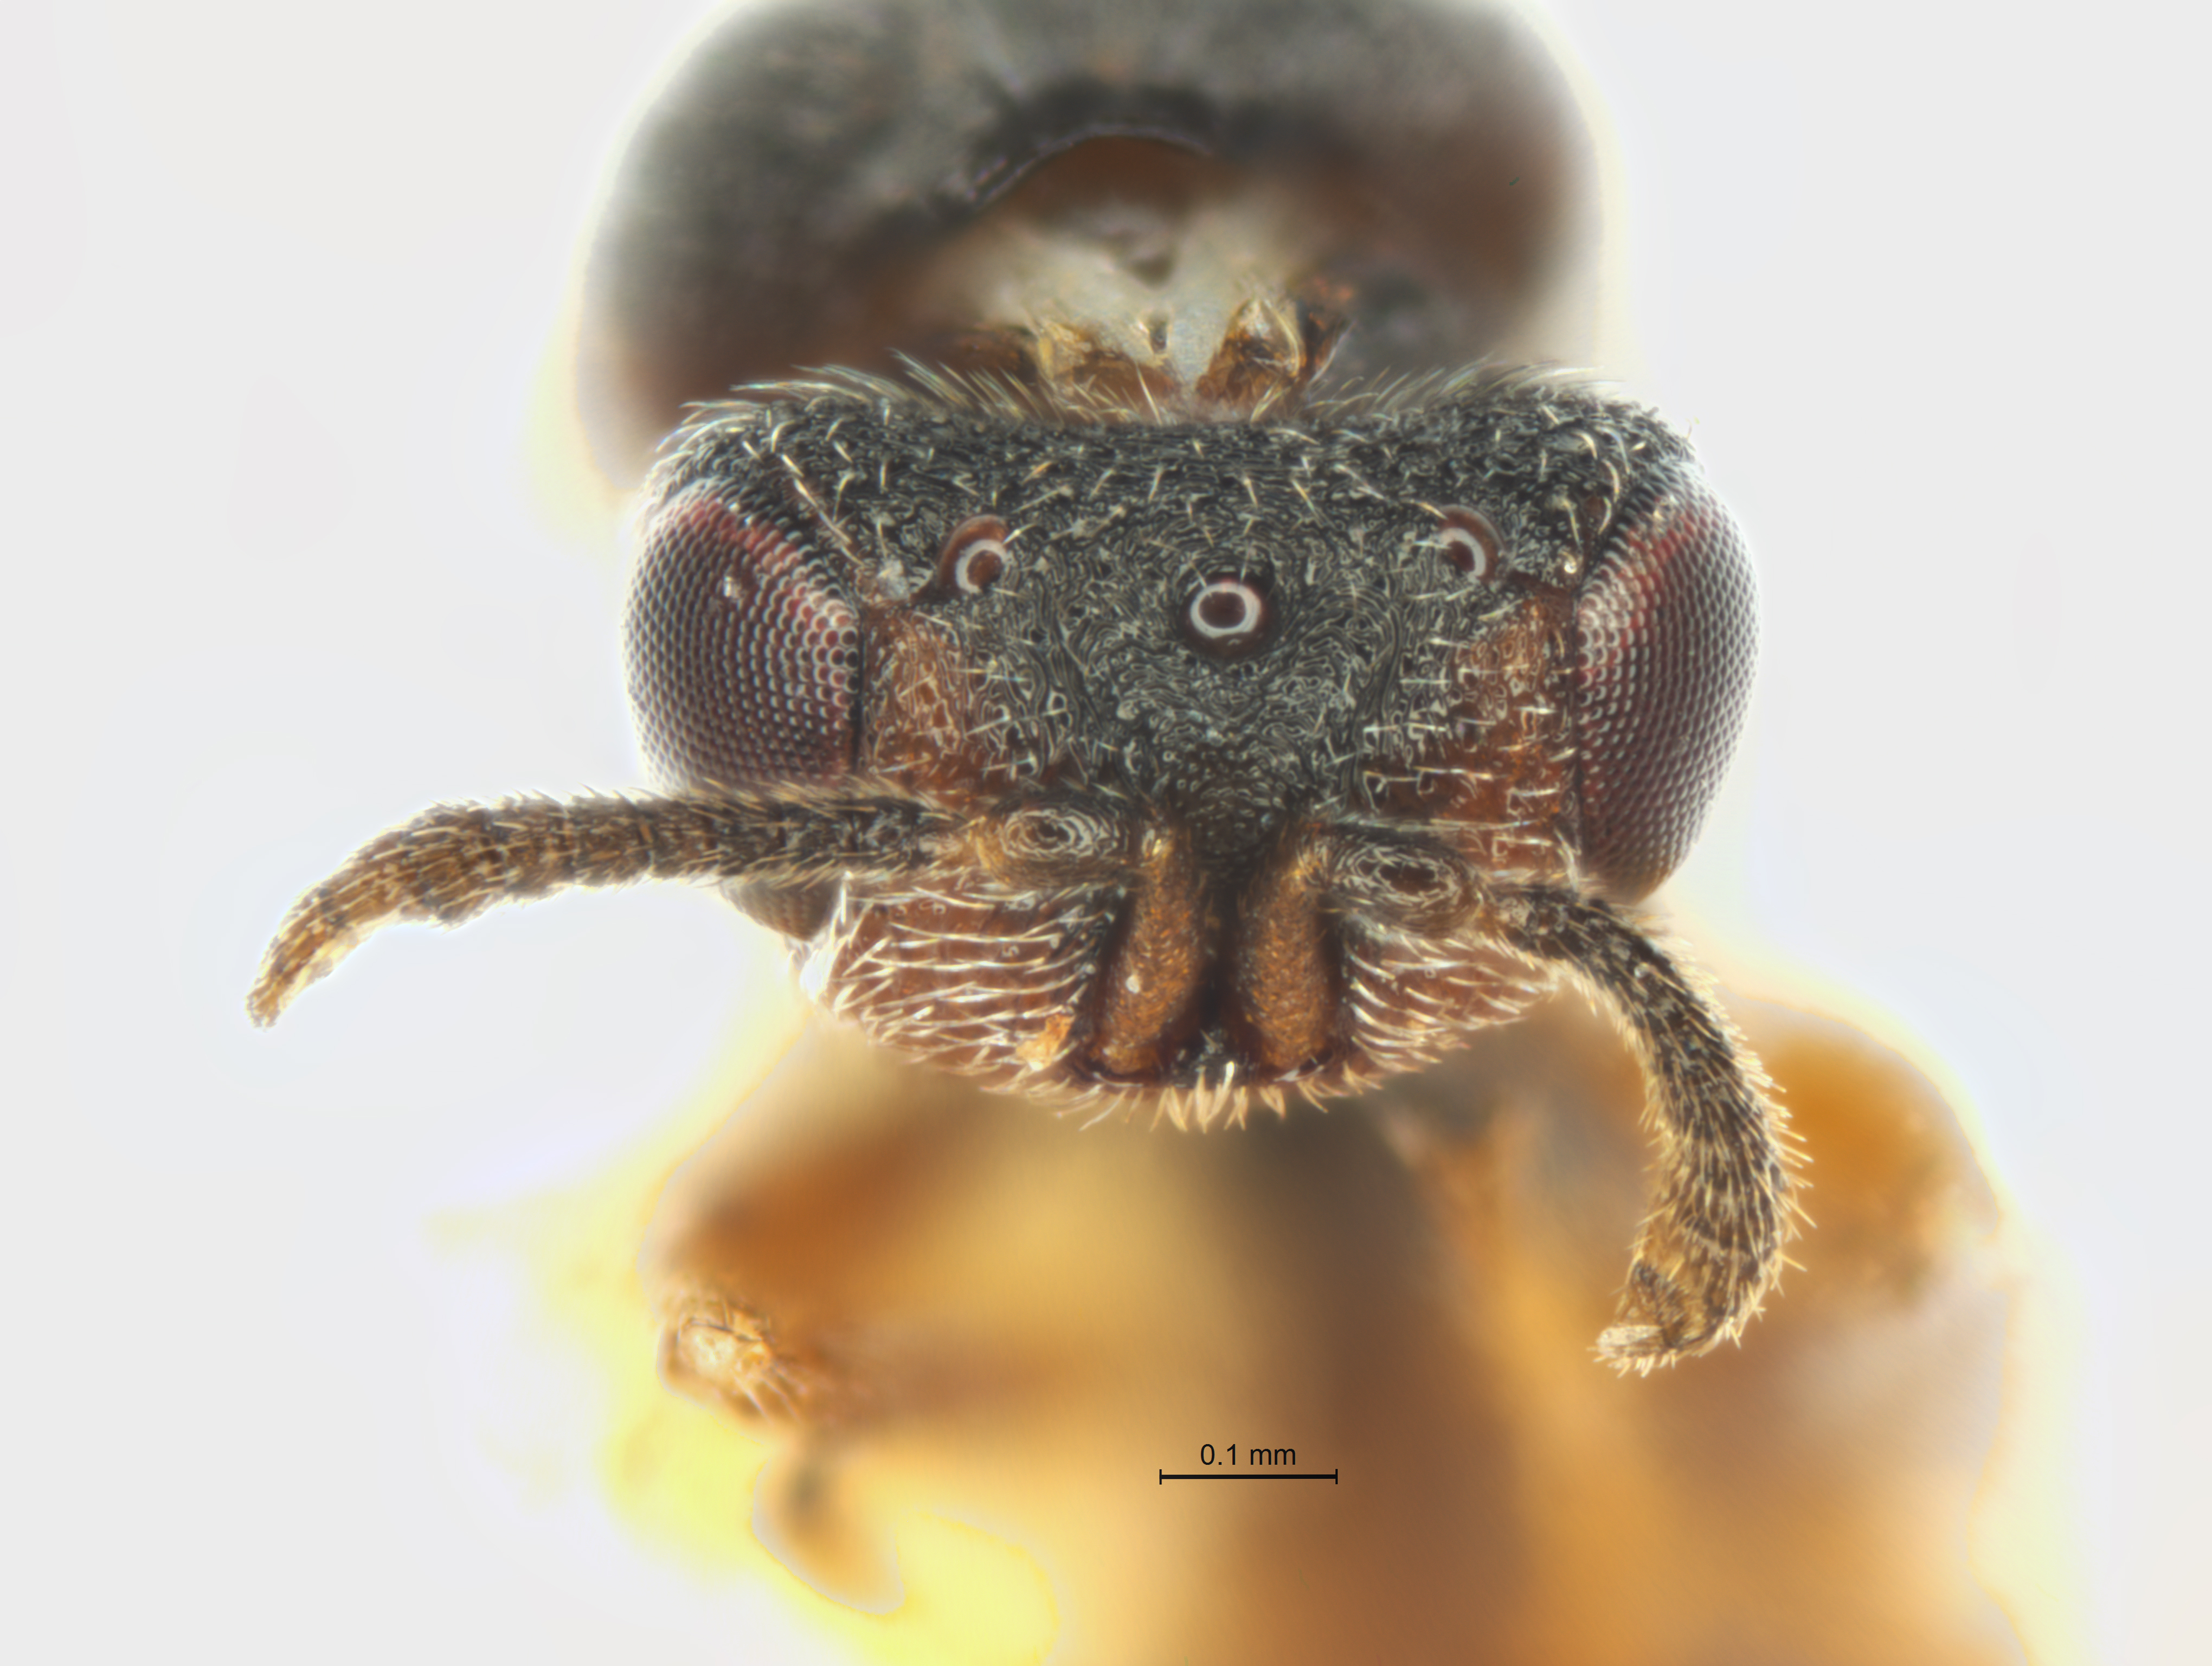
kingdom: Animalia
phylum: Arthropoda
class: Insecta
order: Hymenoptera
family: Eurytomidae
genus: Dougiola
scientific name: Dougiola
